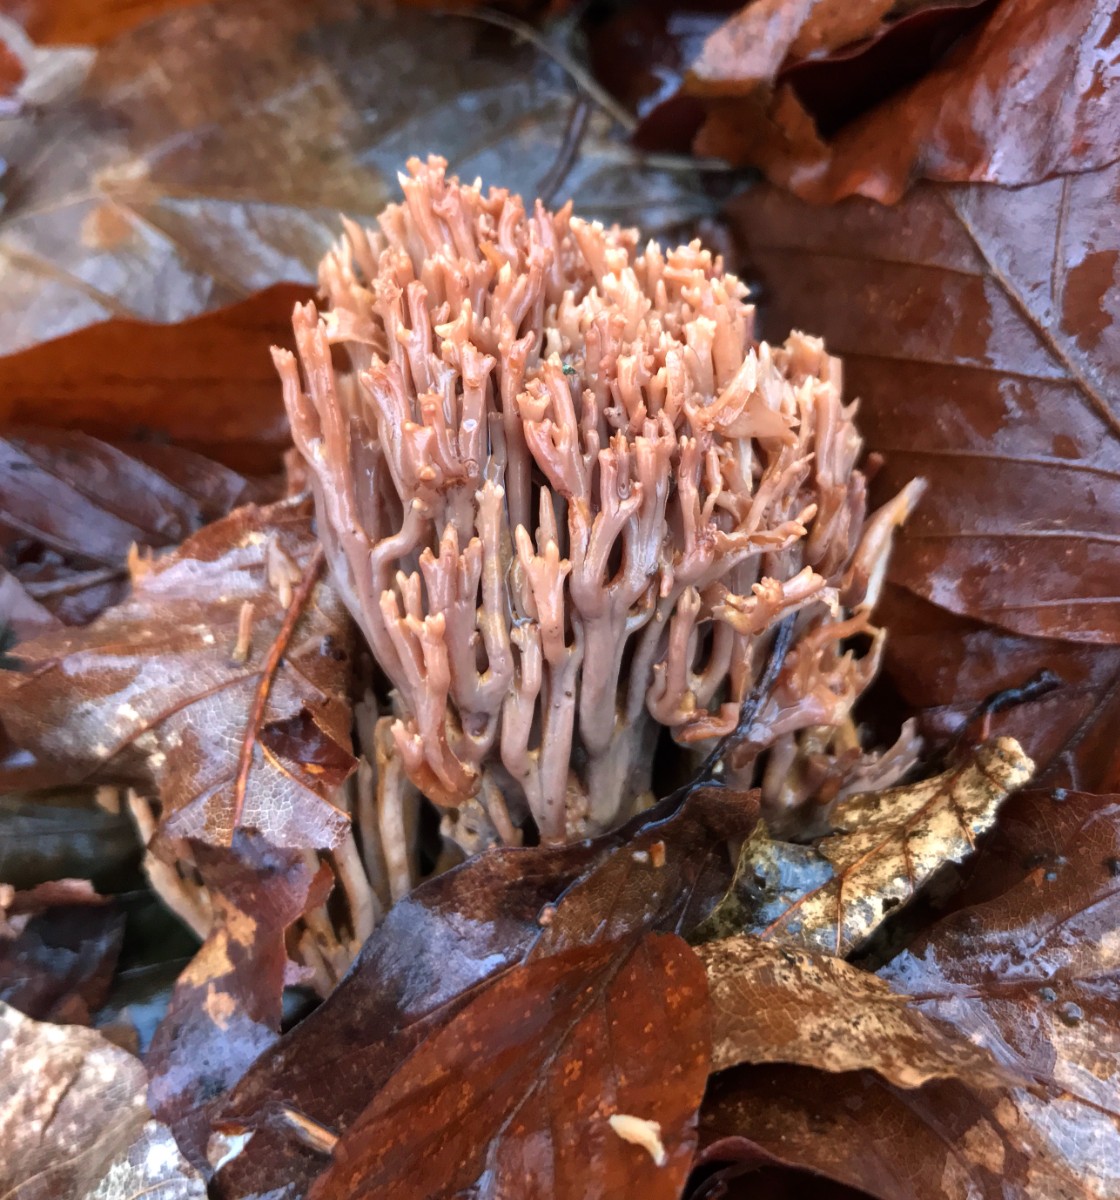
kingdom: Fungi
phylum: Basidiomycota
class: Agaricomycetes
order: Gomphales
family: Gomphaceae
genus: Ramaria
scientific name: Ramaria stricta
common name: rank koralsvamp
